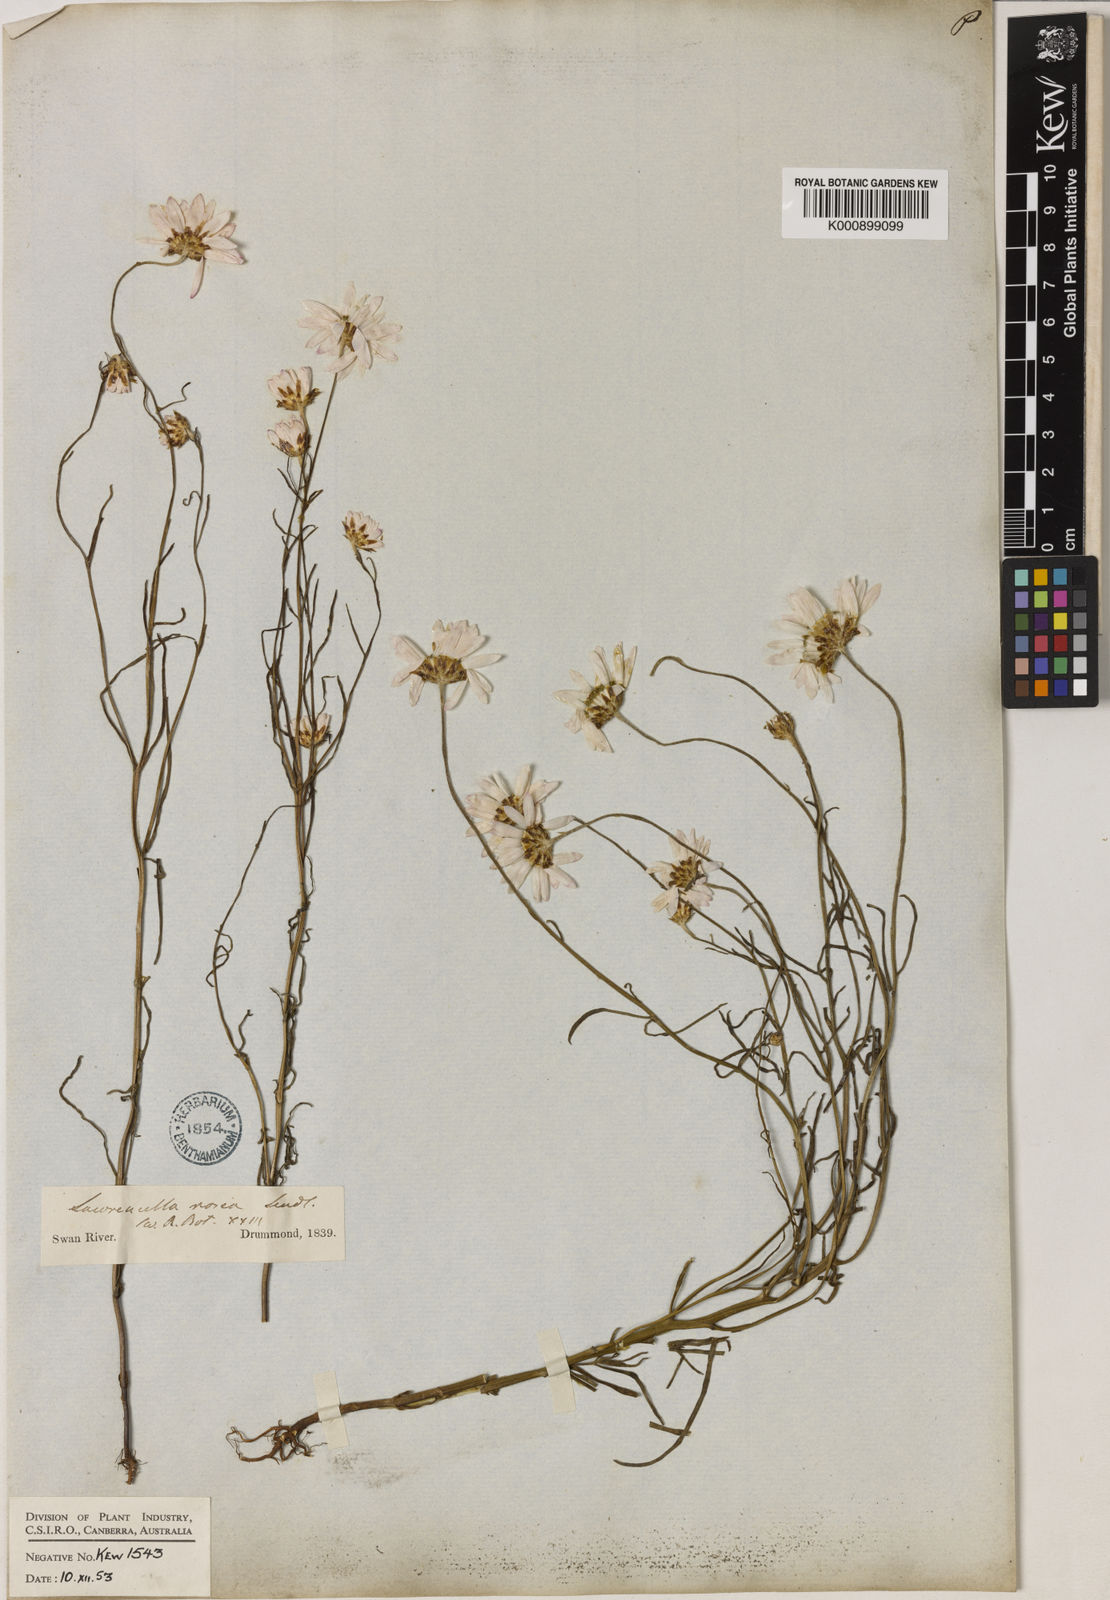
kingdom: Plantae
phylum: Tracheophyta
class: Magnoliopsida
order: Asterales
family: Asteraceae
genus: Lawrencella
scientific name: Lawrencella rosea
